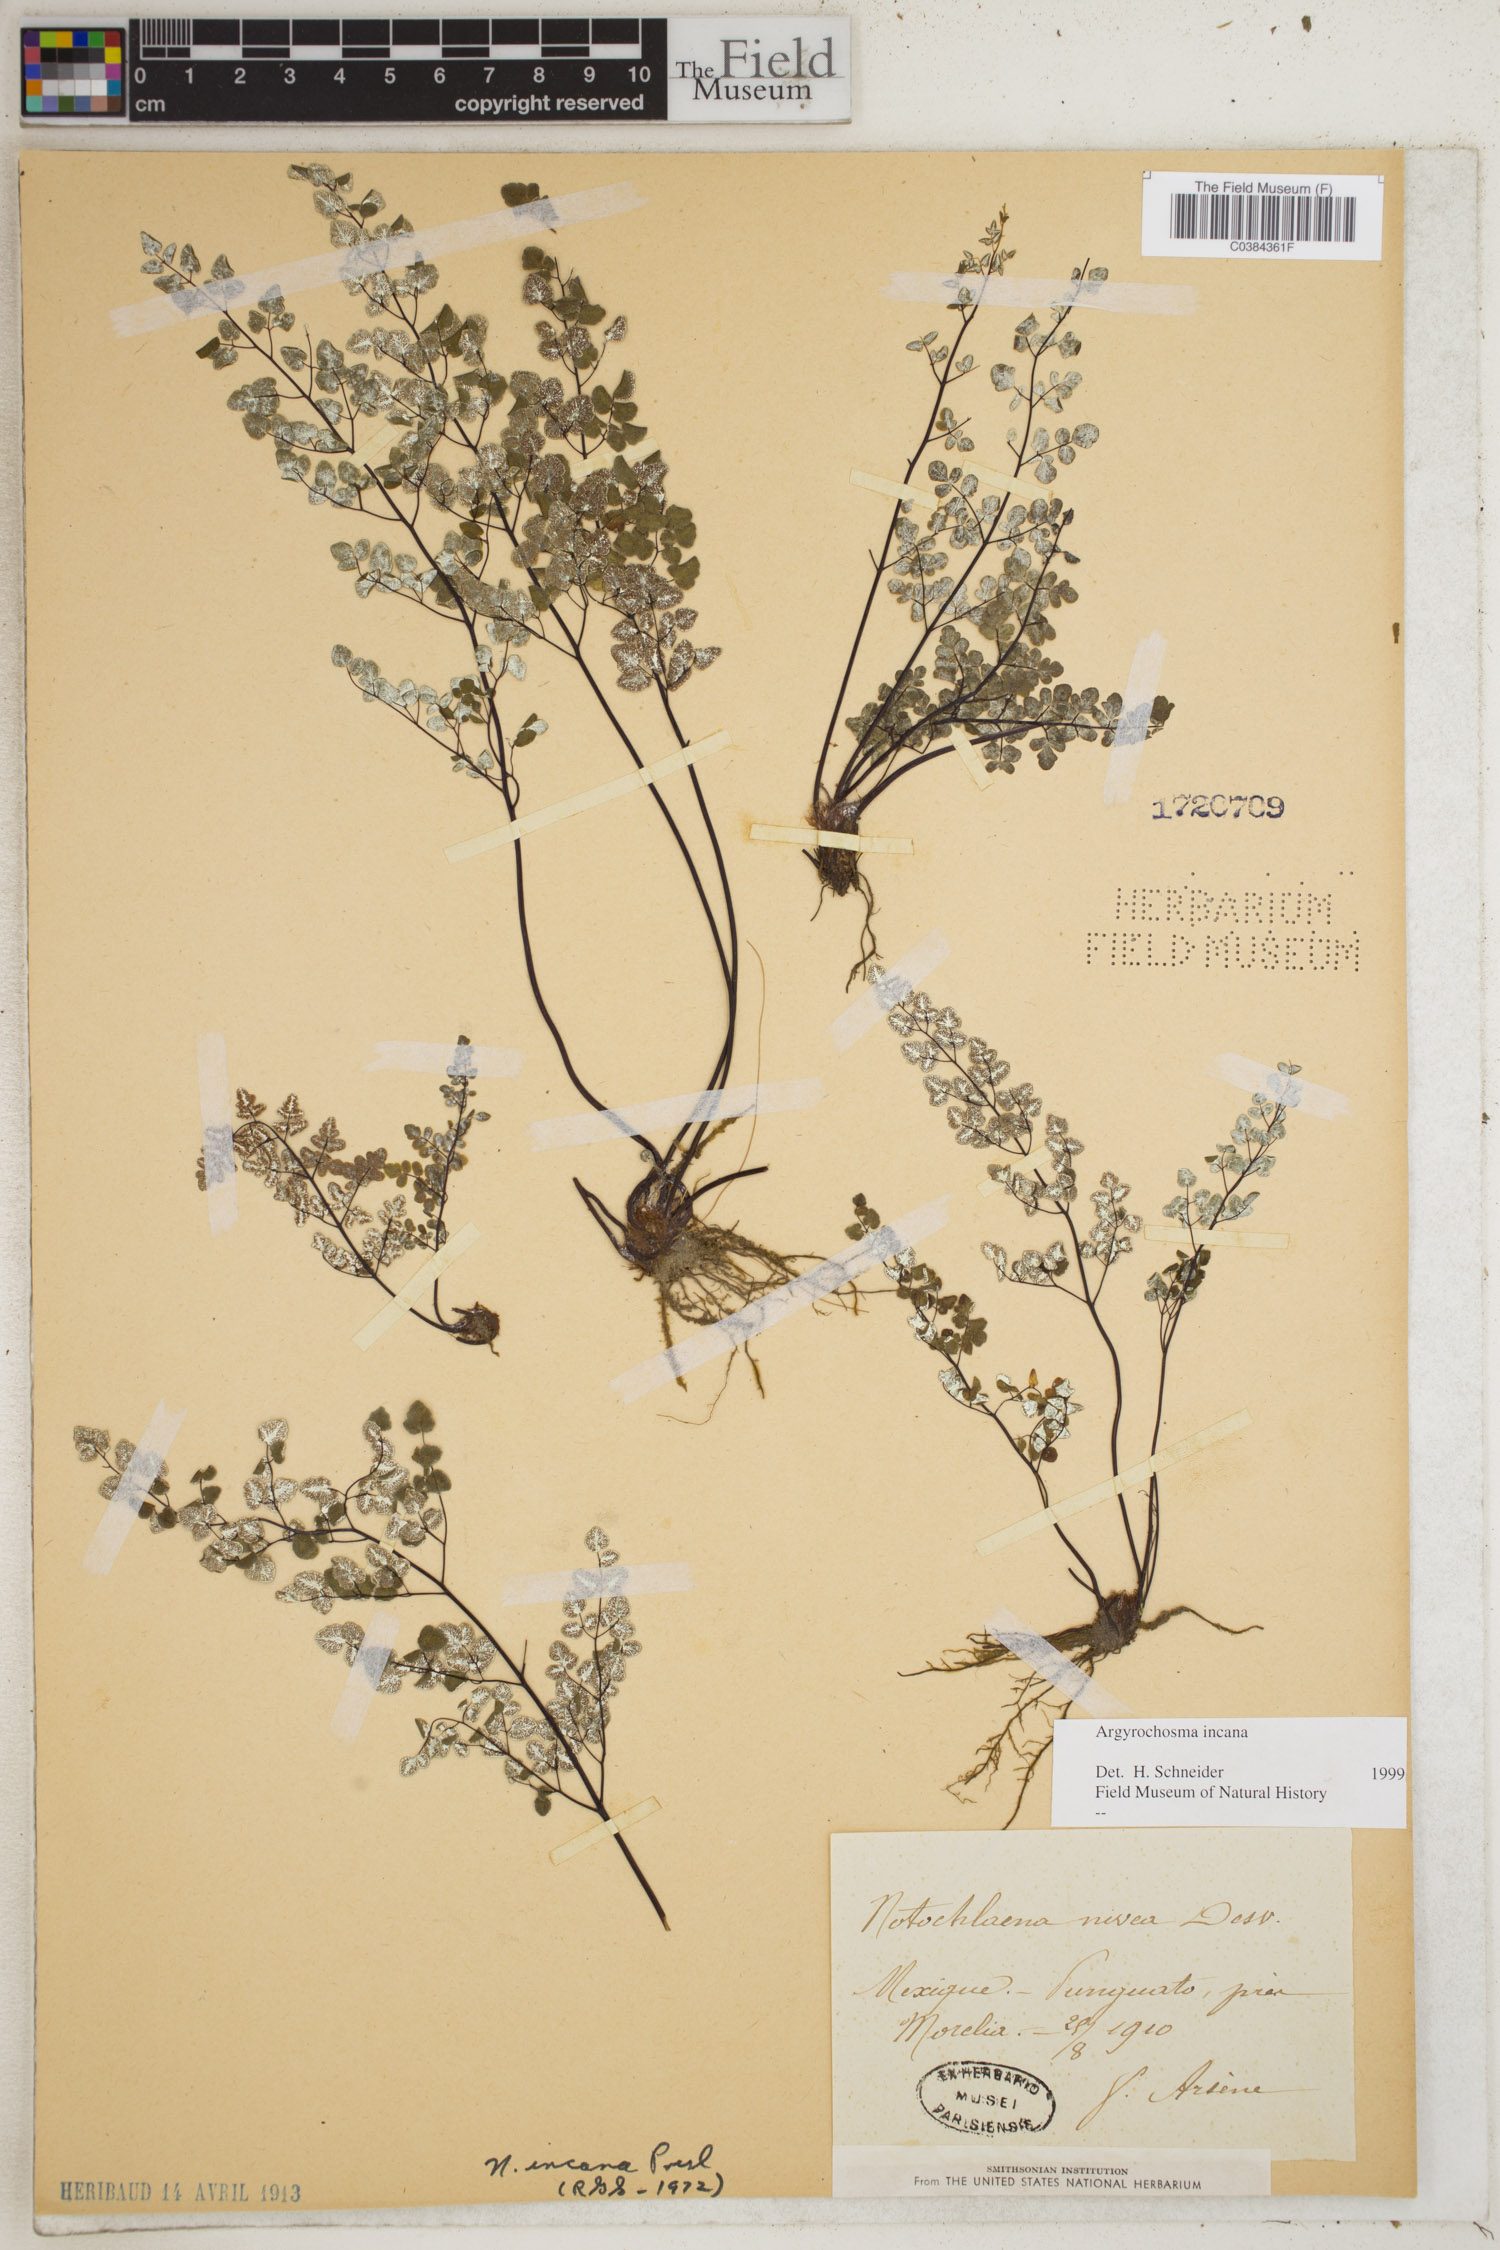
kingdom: Plantae
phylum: Tracheophyta
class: Polypodiopsida
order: Polypodiales
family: Pteridaceae
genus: Argyrochosma
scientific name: Argyrochosma incana
